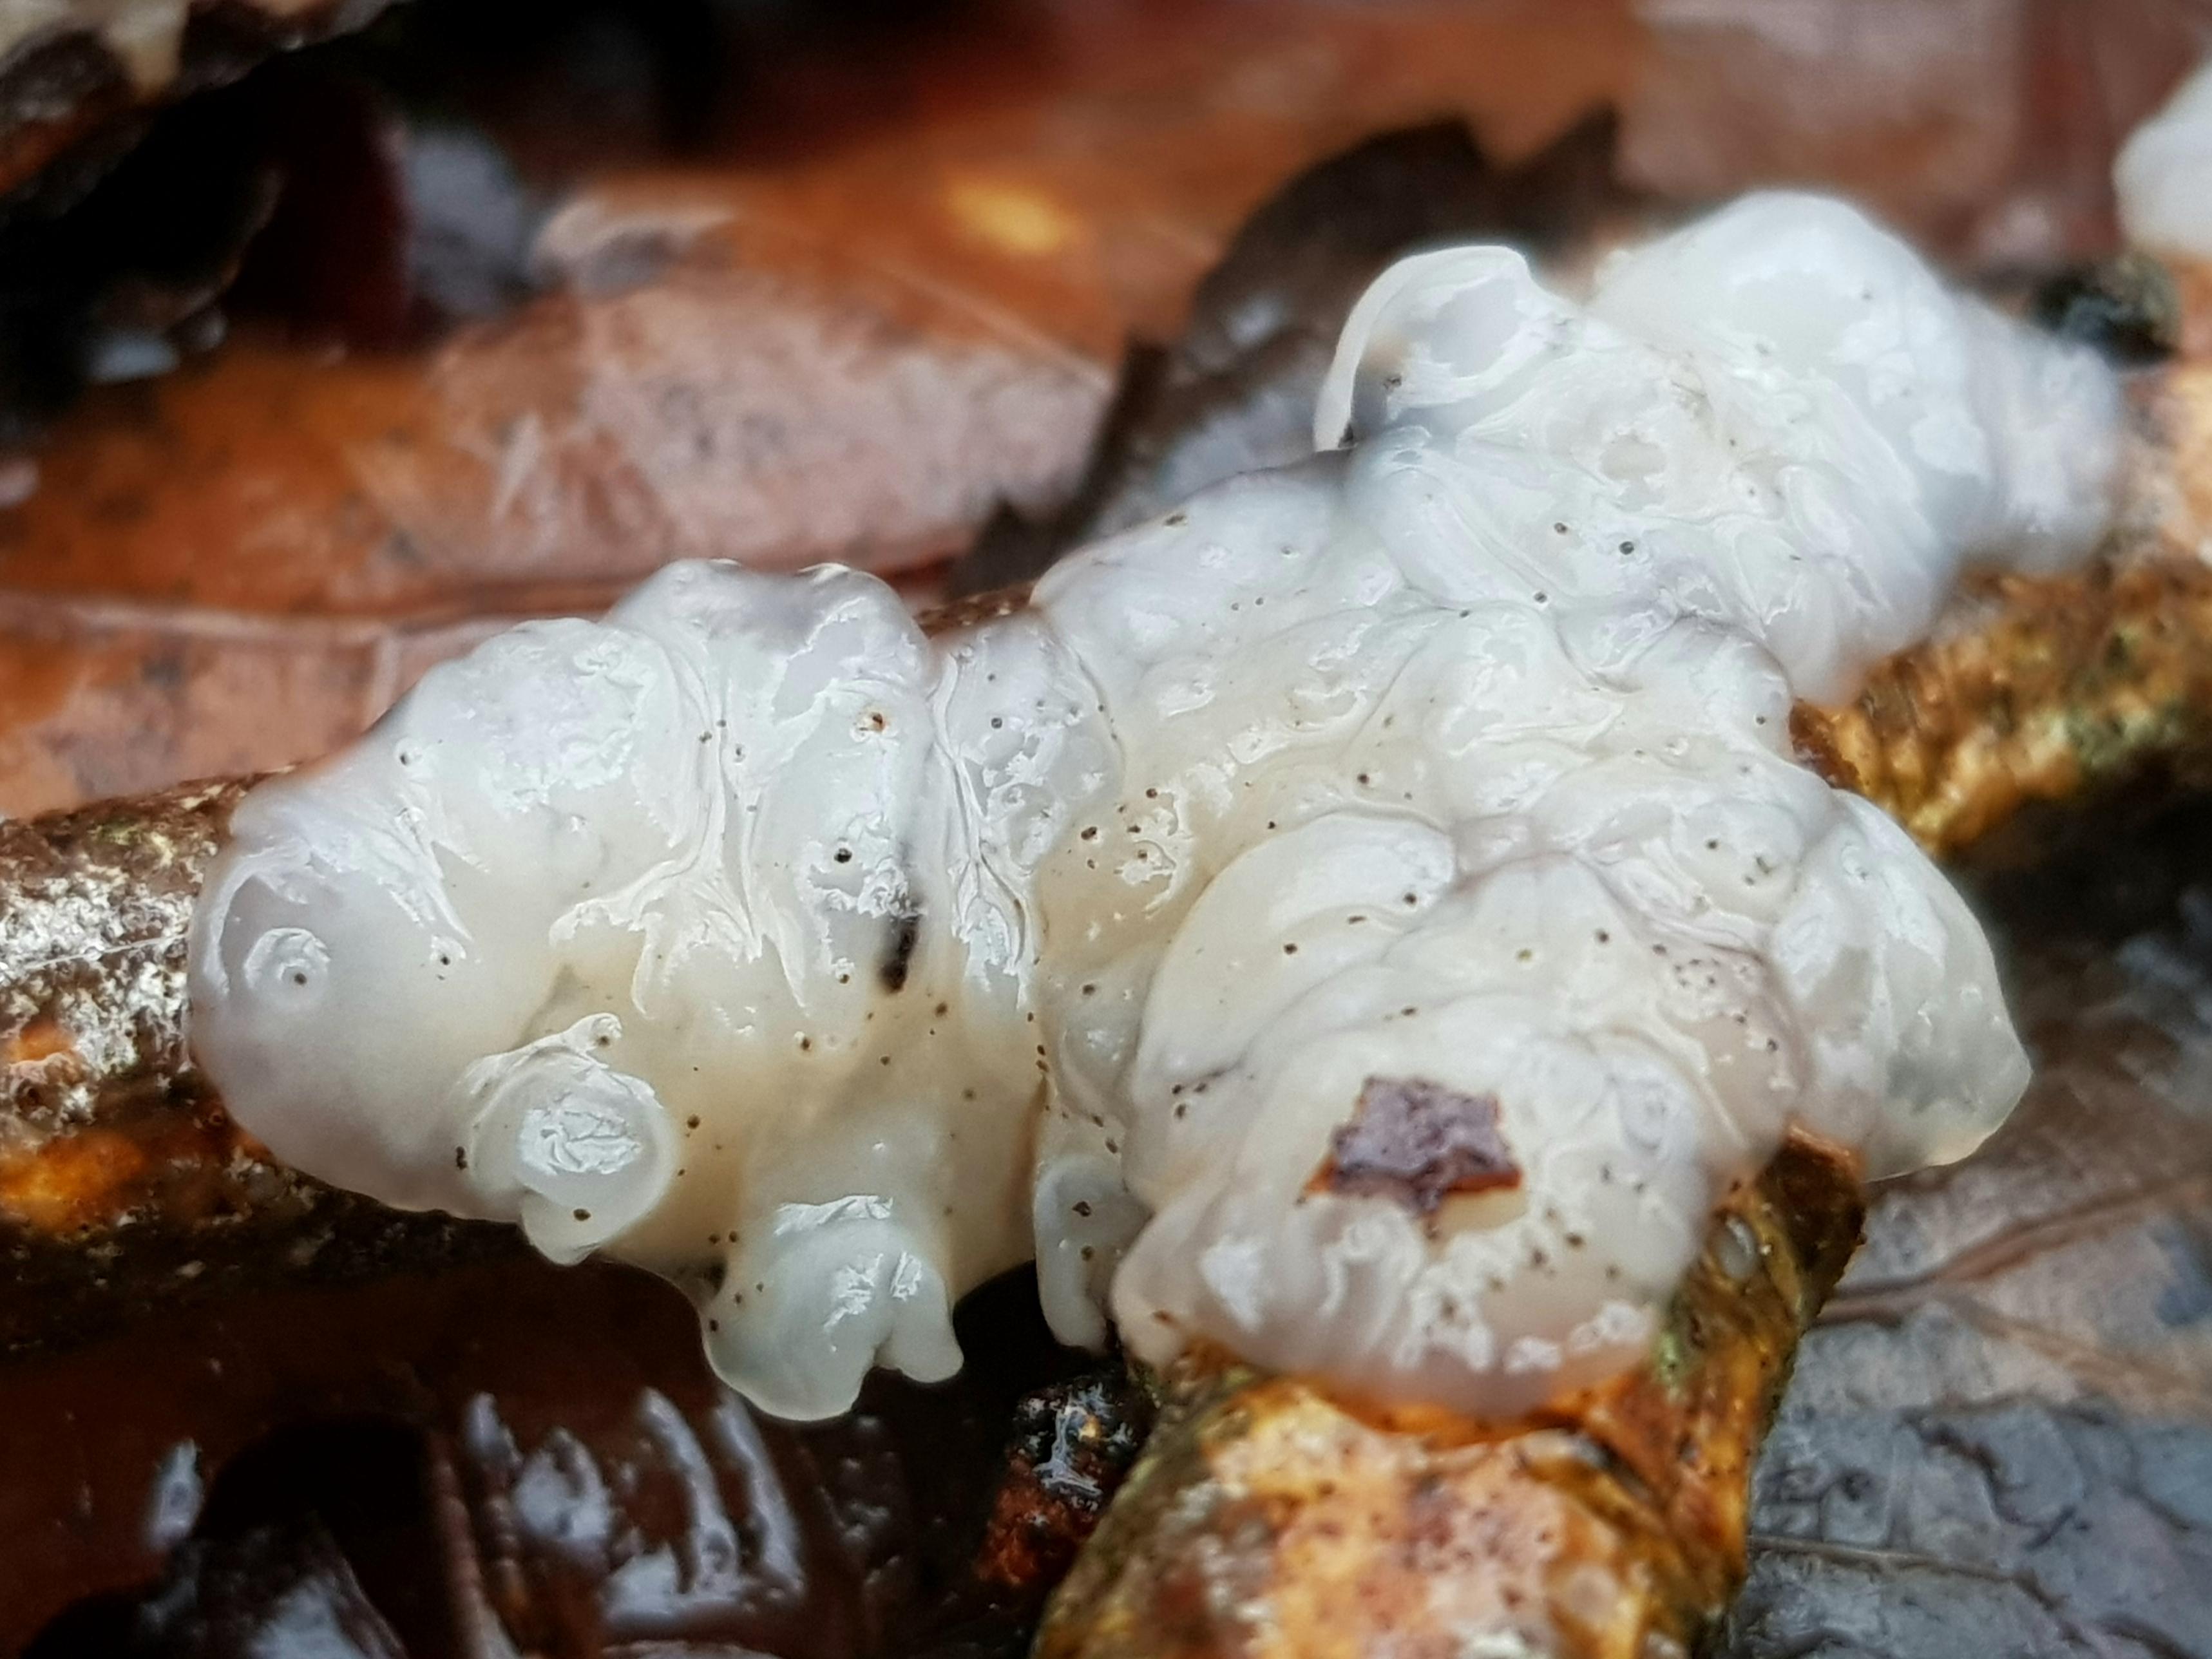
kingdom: Fungi
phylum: Basidiomycota
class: Agaricomycetes
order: Auriculariales
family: Auriculariaceae
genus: Exidia
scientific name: Exidia thuretiana
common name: hvidlig bævretop
